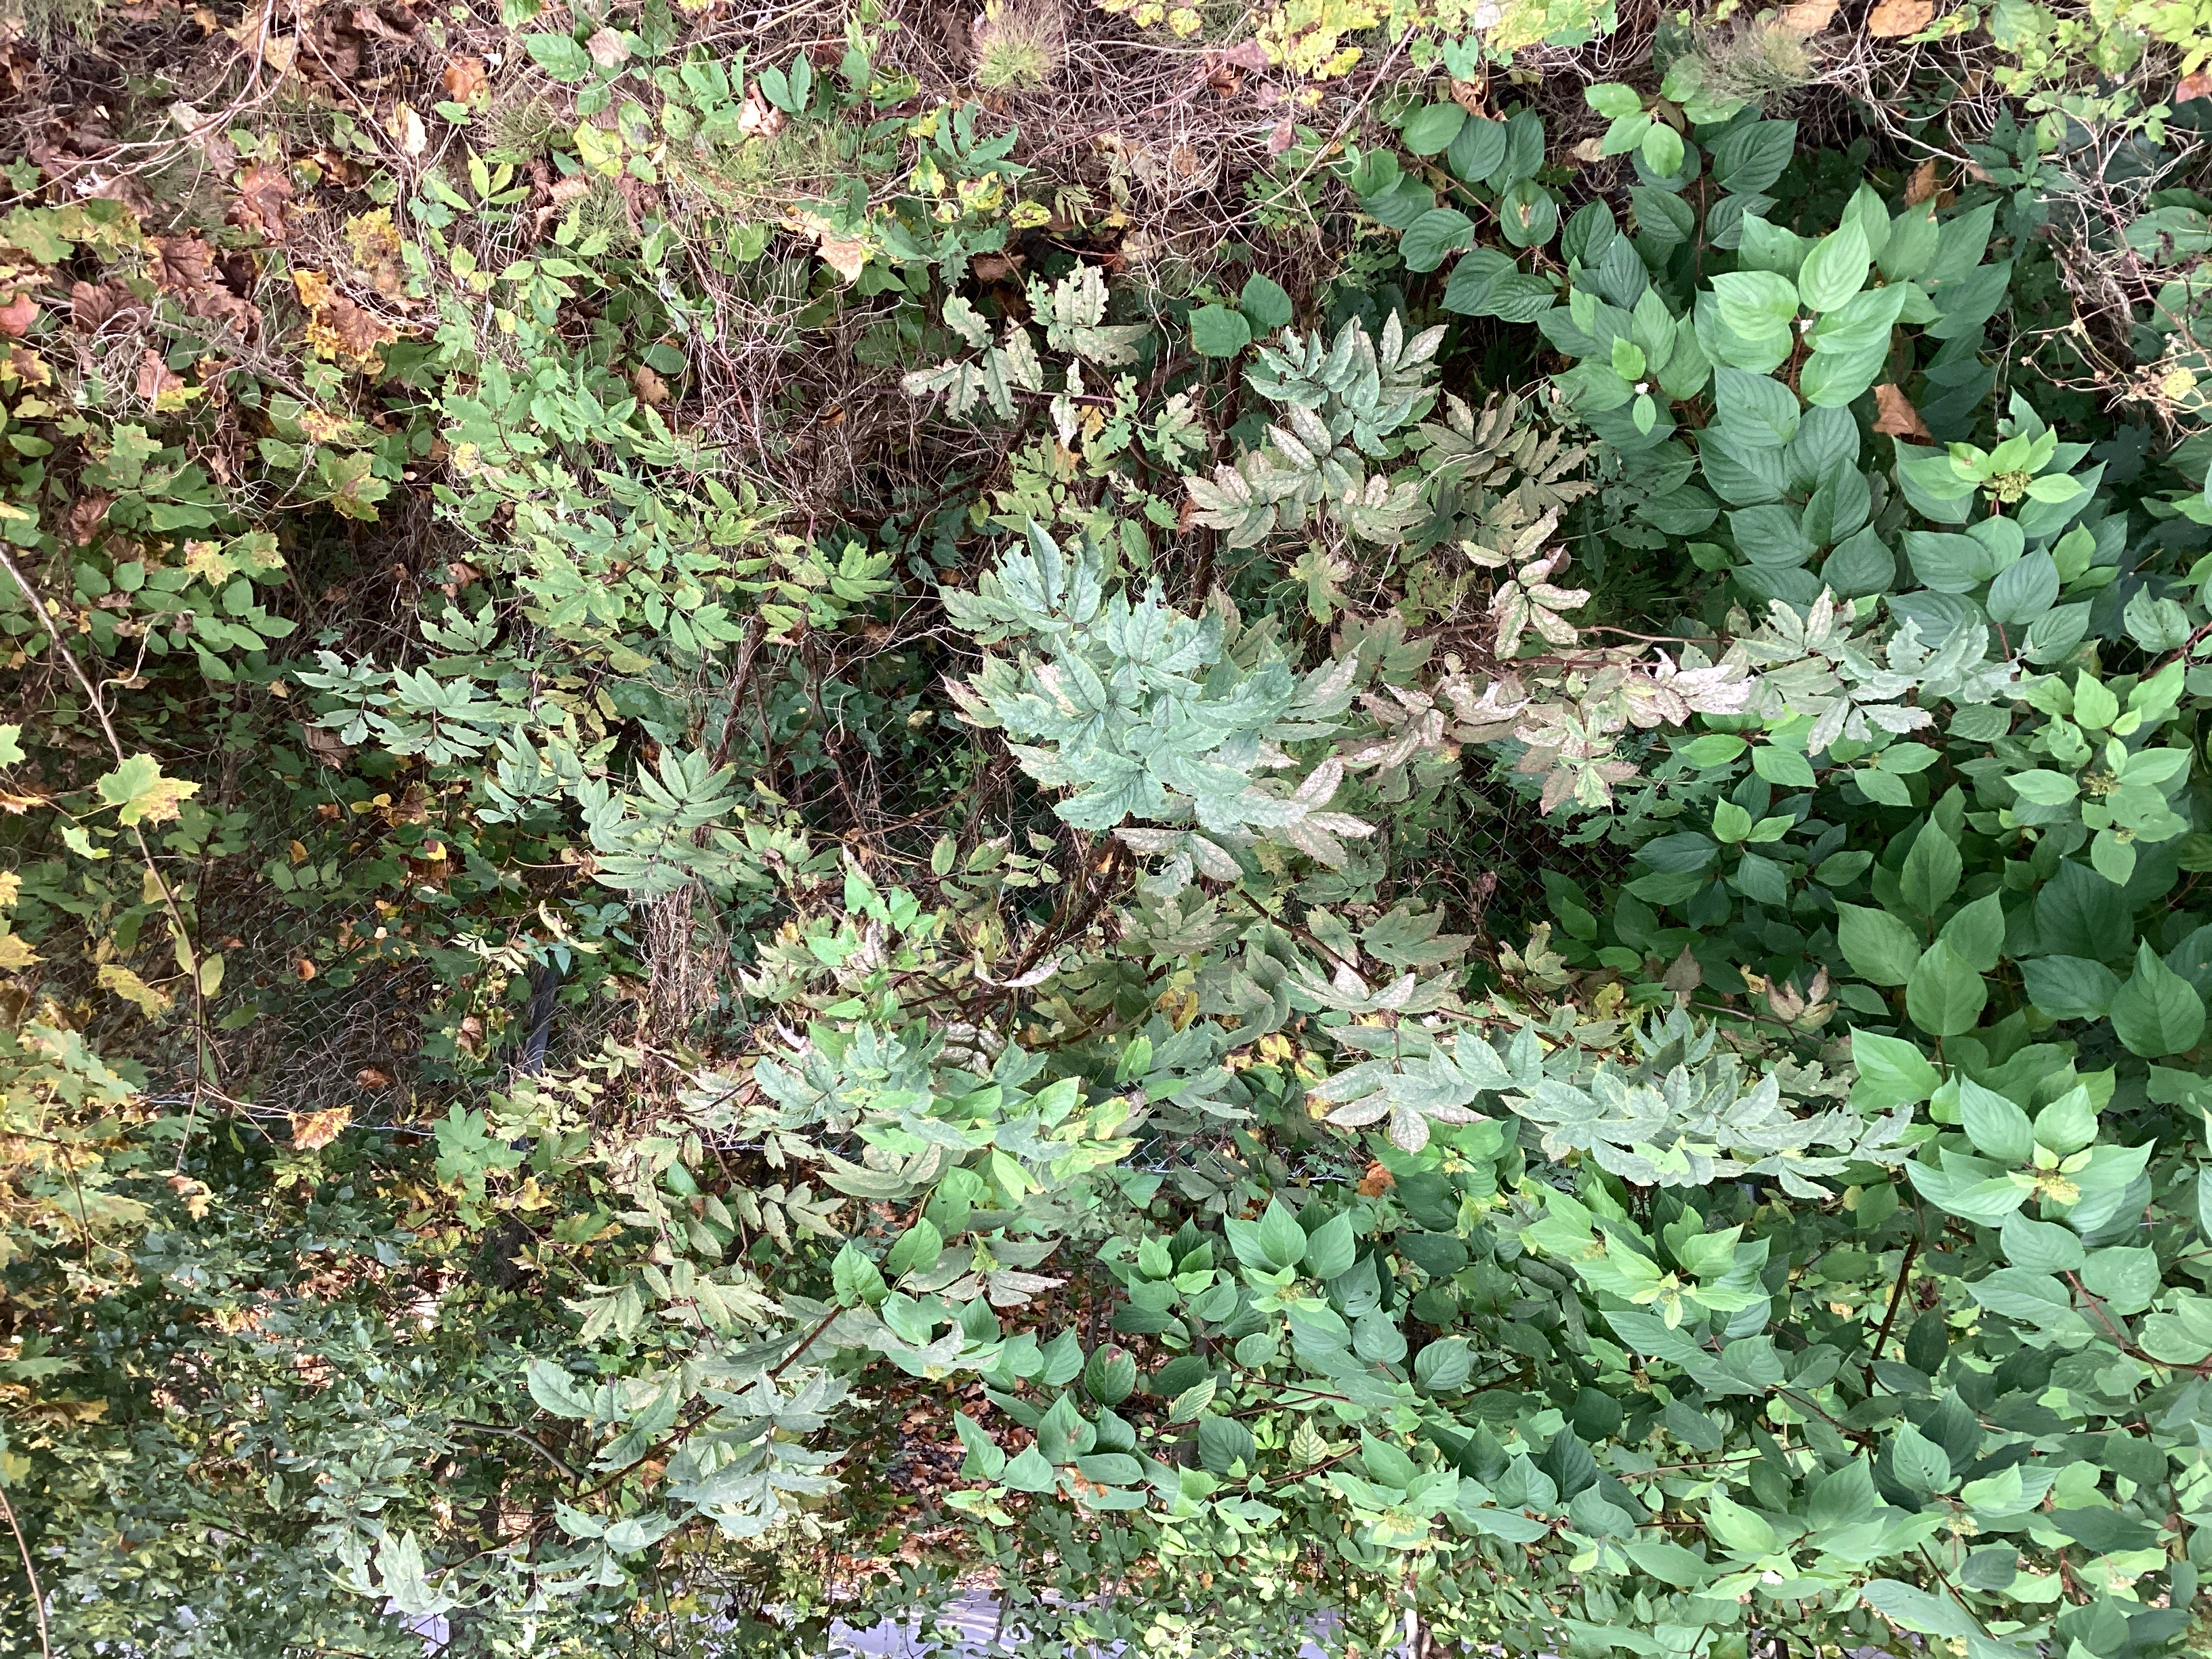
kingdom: Plantae
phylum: Tracheophyta
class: Magnoliopsida
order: Dipsacales
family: Viburnaceae
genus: Sambucus
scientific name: Sambucus racemosa
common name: rødhyll
